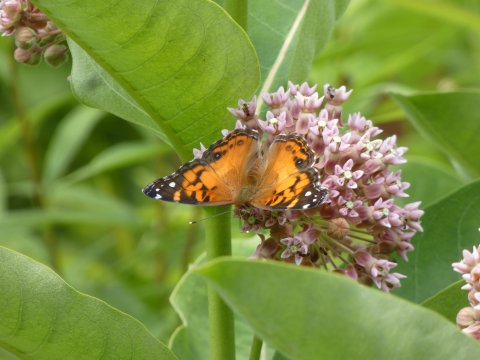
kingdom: Animalia
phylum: Arthropoda
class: Insecta
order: Lepidoptera
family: Nymphalidae
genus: Vanessa
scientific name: Vanessa virginiensis
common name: American Lady
